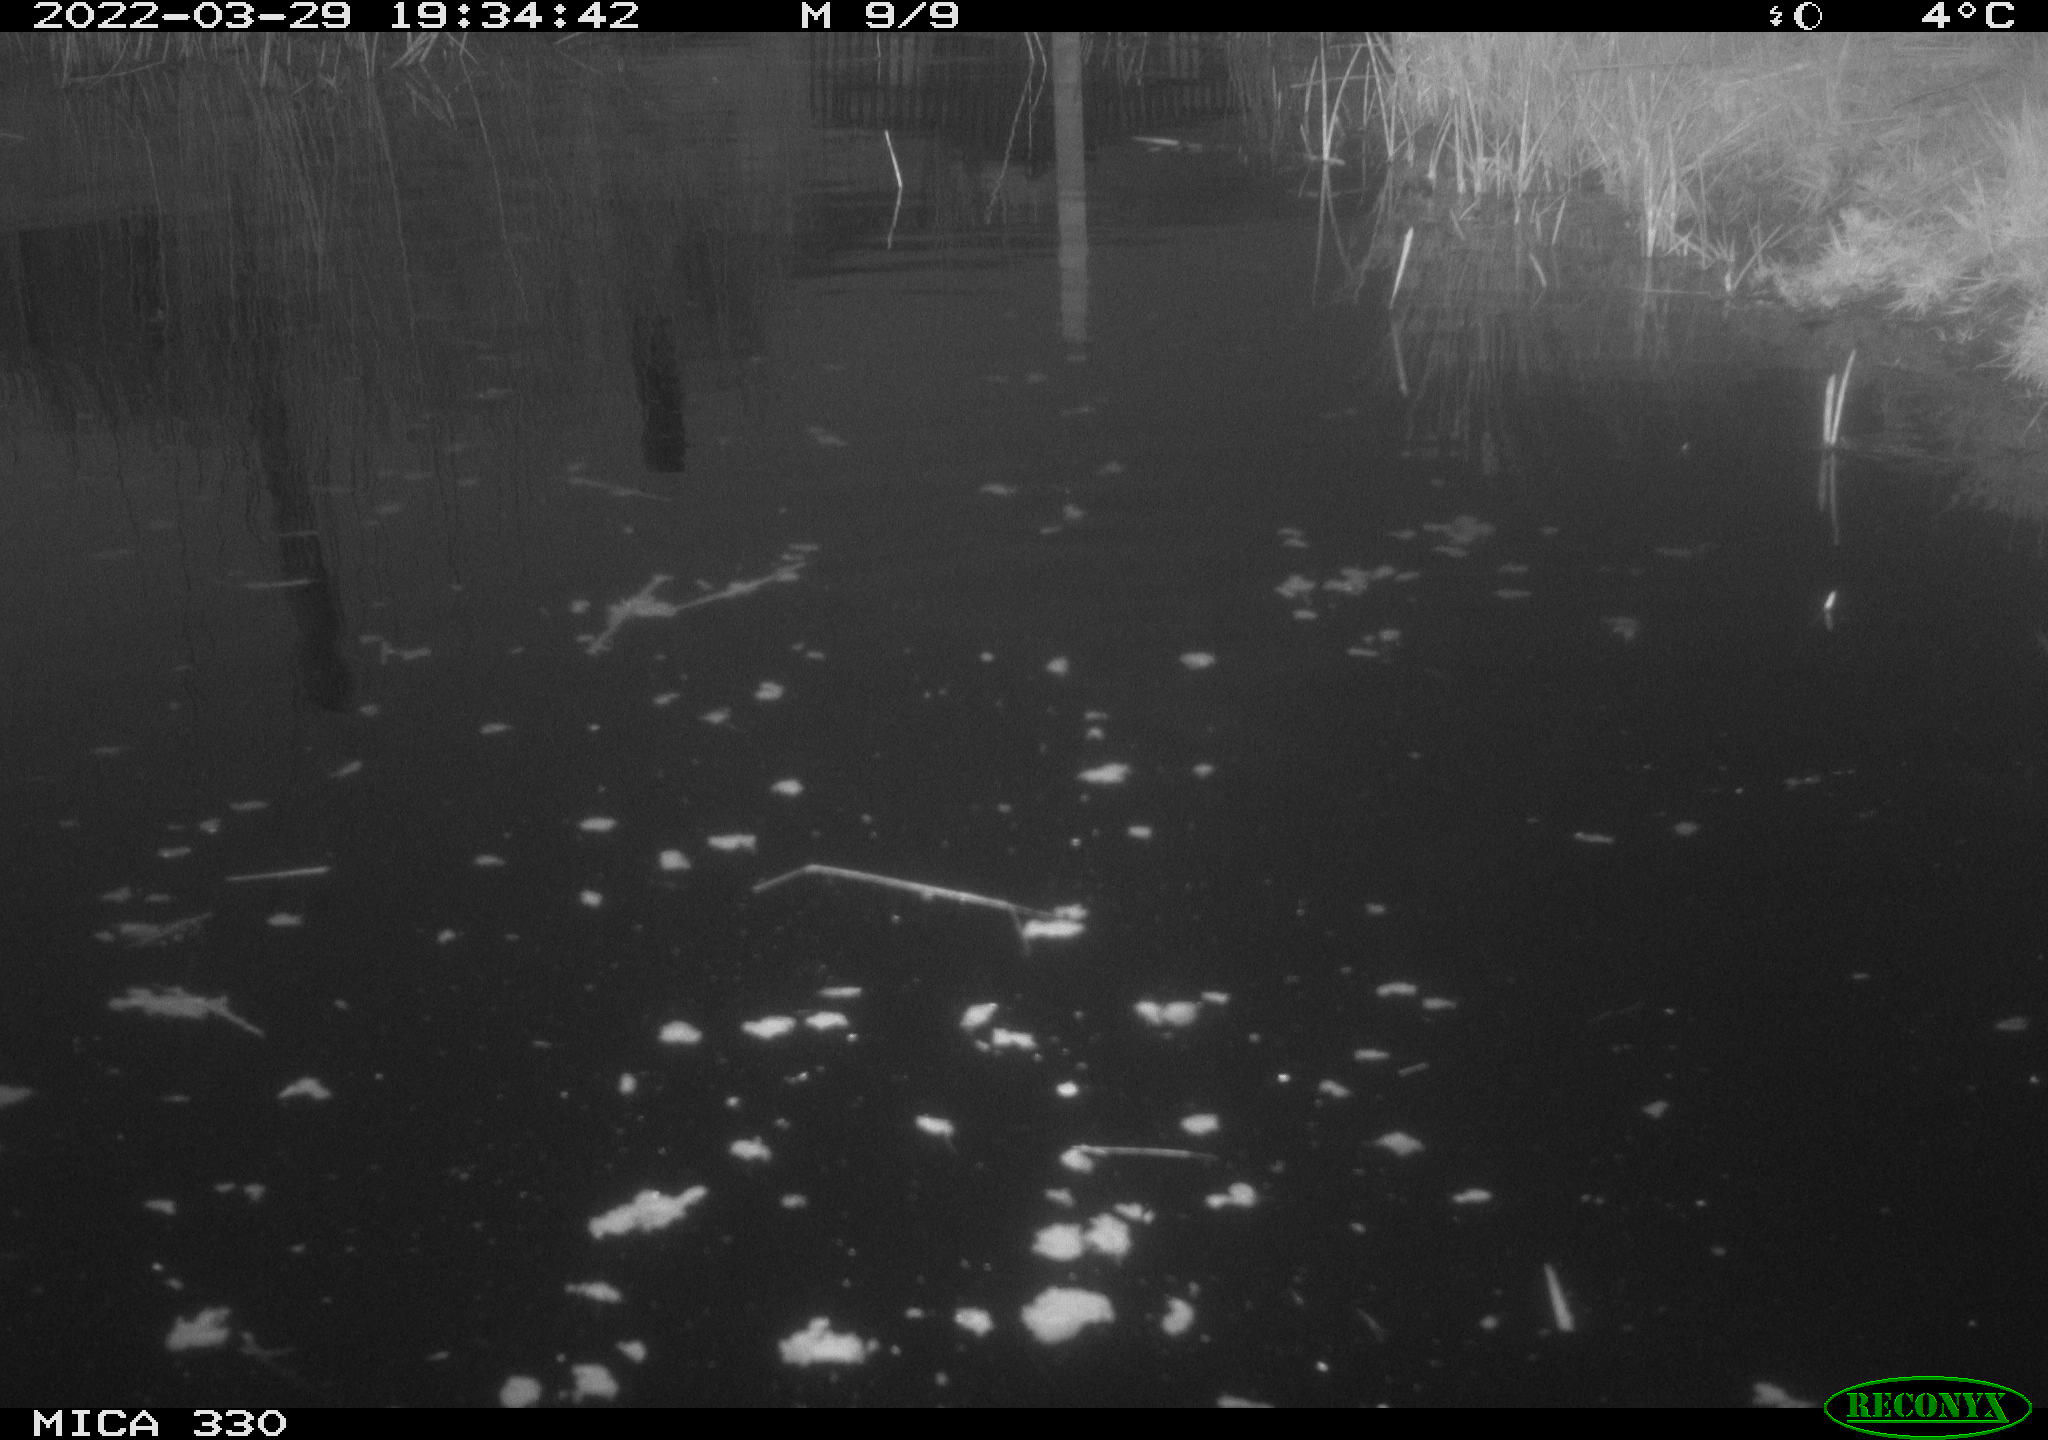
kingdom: Animalia
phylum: Chordata
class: Aves
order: Gruiformes
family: Rallidae
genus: Gallinula
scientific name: Gallinula chloropus
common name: Common moorhen
